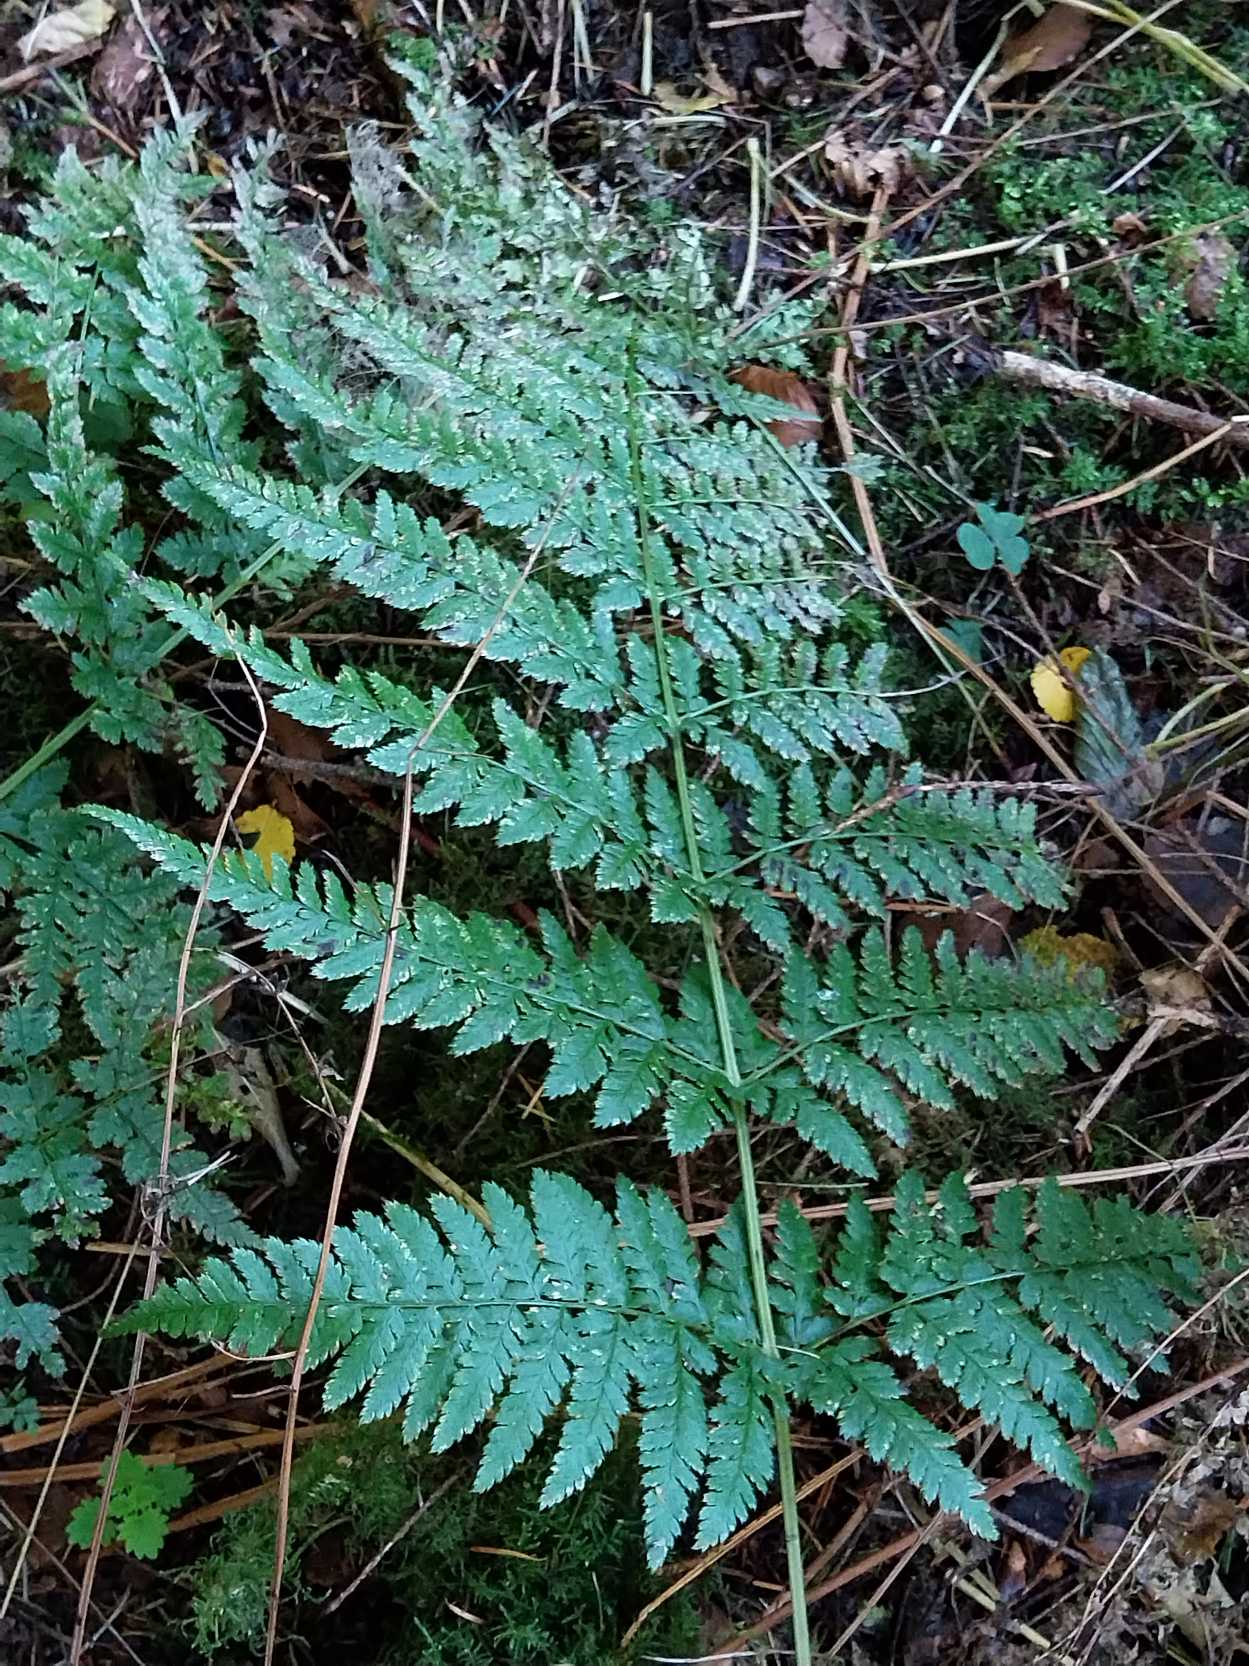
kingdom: Plantae
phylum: Tracheophyta
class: Polypodiopsida
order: Polypodiales
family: Dryopteridaceae
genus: Dryopteris
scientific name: Dryopteris dilatata
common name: Bredbladet mangeløv
